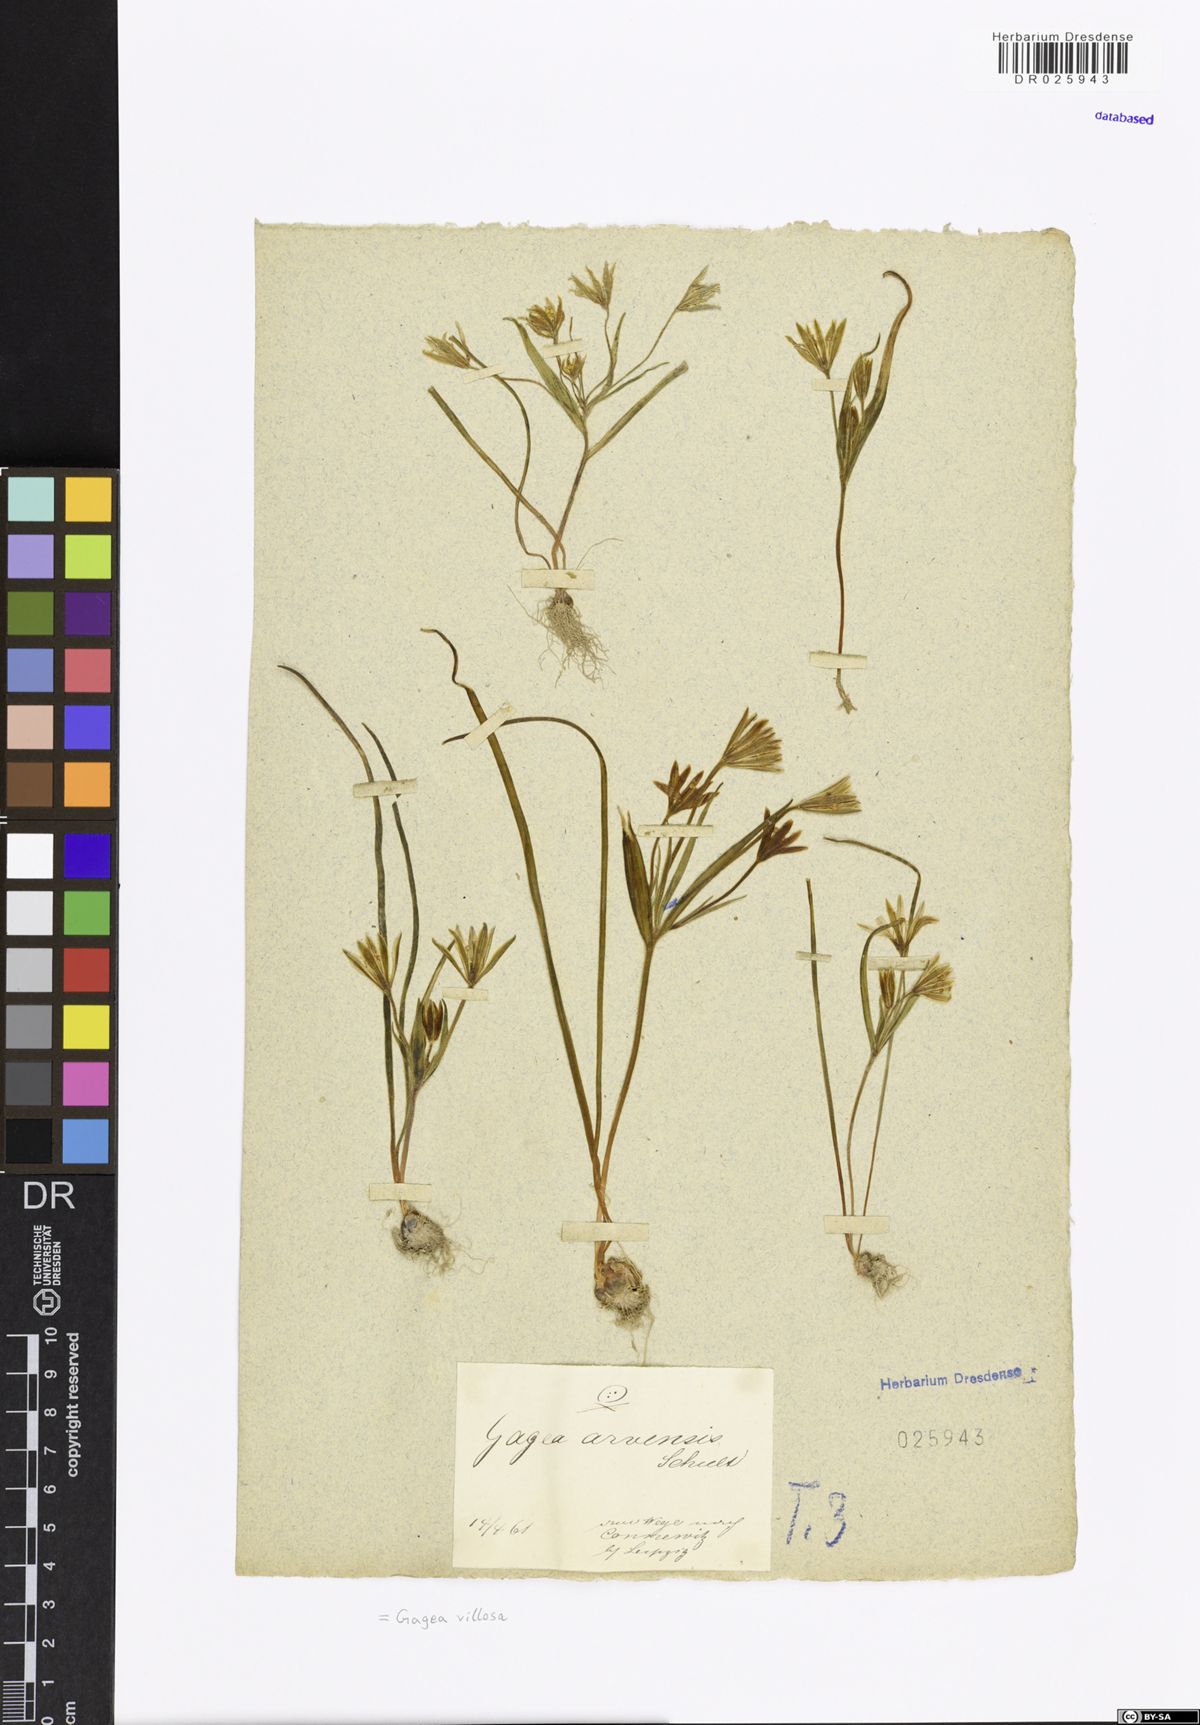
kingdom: Plantae
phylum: Tracheophyta
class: Liliopsida
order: Liliales
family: Liliaceae
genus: Gagea
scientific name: Gagea villosa
